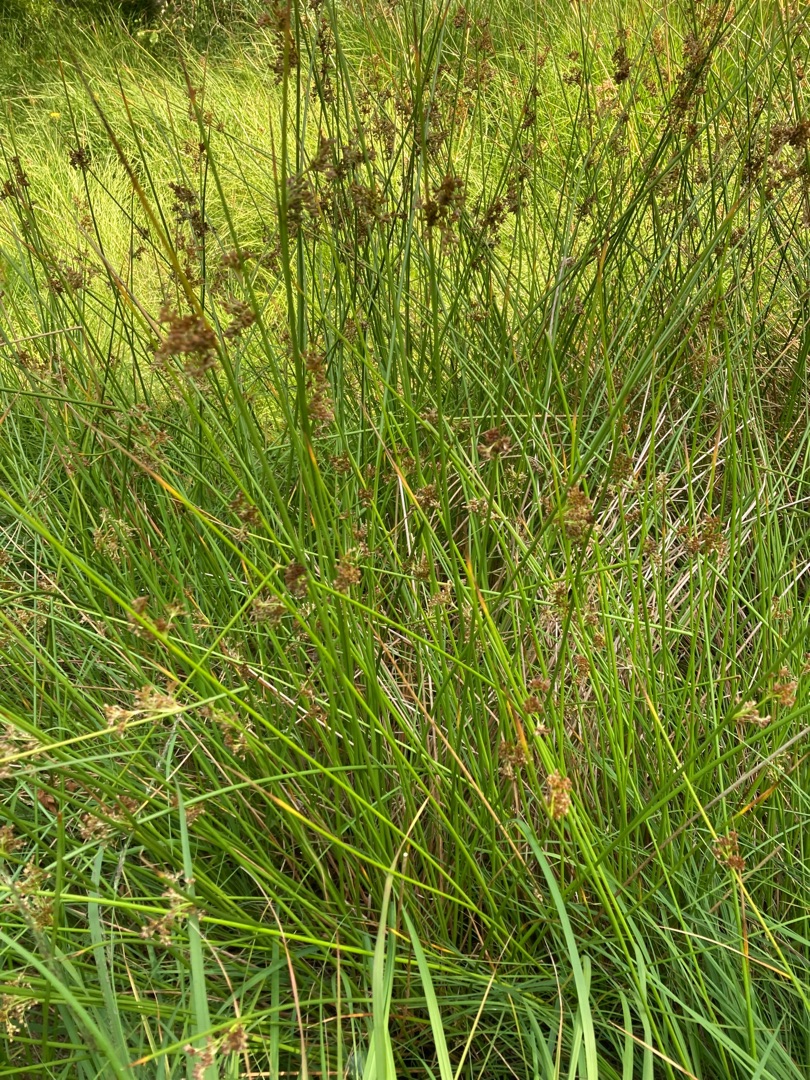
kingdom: Plantae
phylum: Tracheophyta
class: Liliopsida
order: Poales
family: Juncaceae
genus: Juncus
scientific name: Juncus effusus
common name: Lyse-siv
